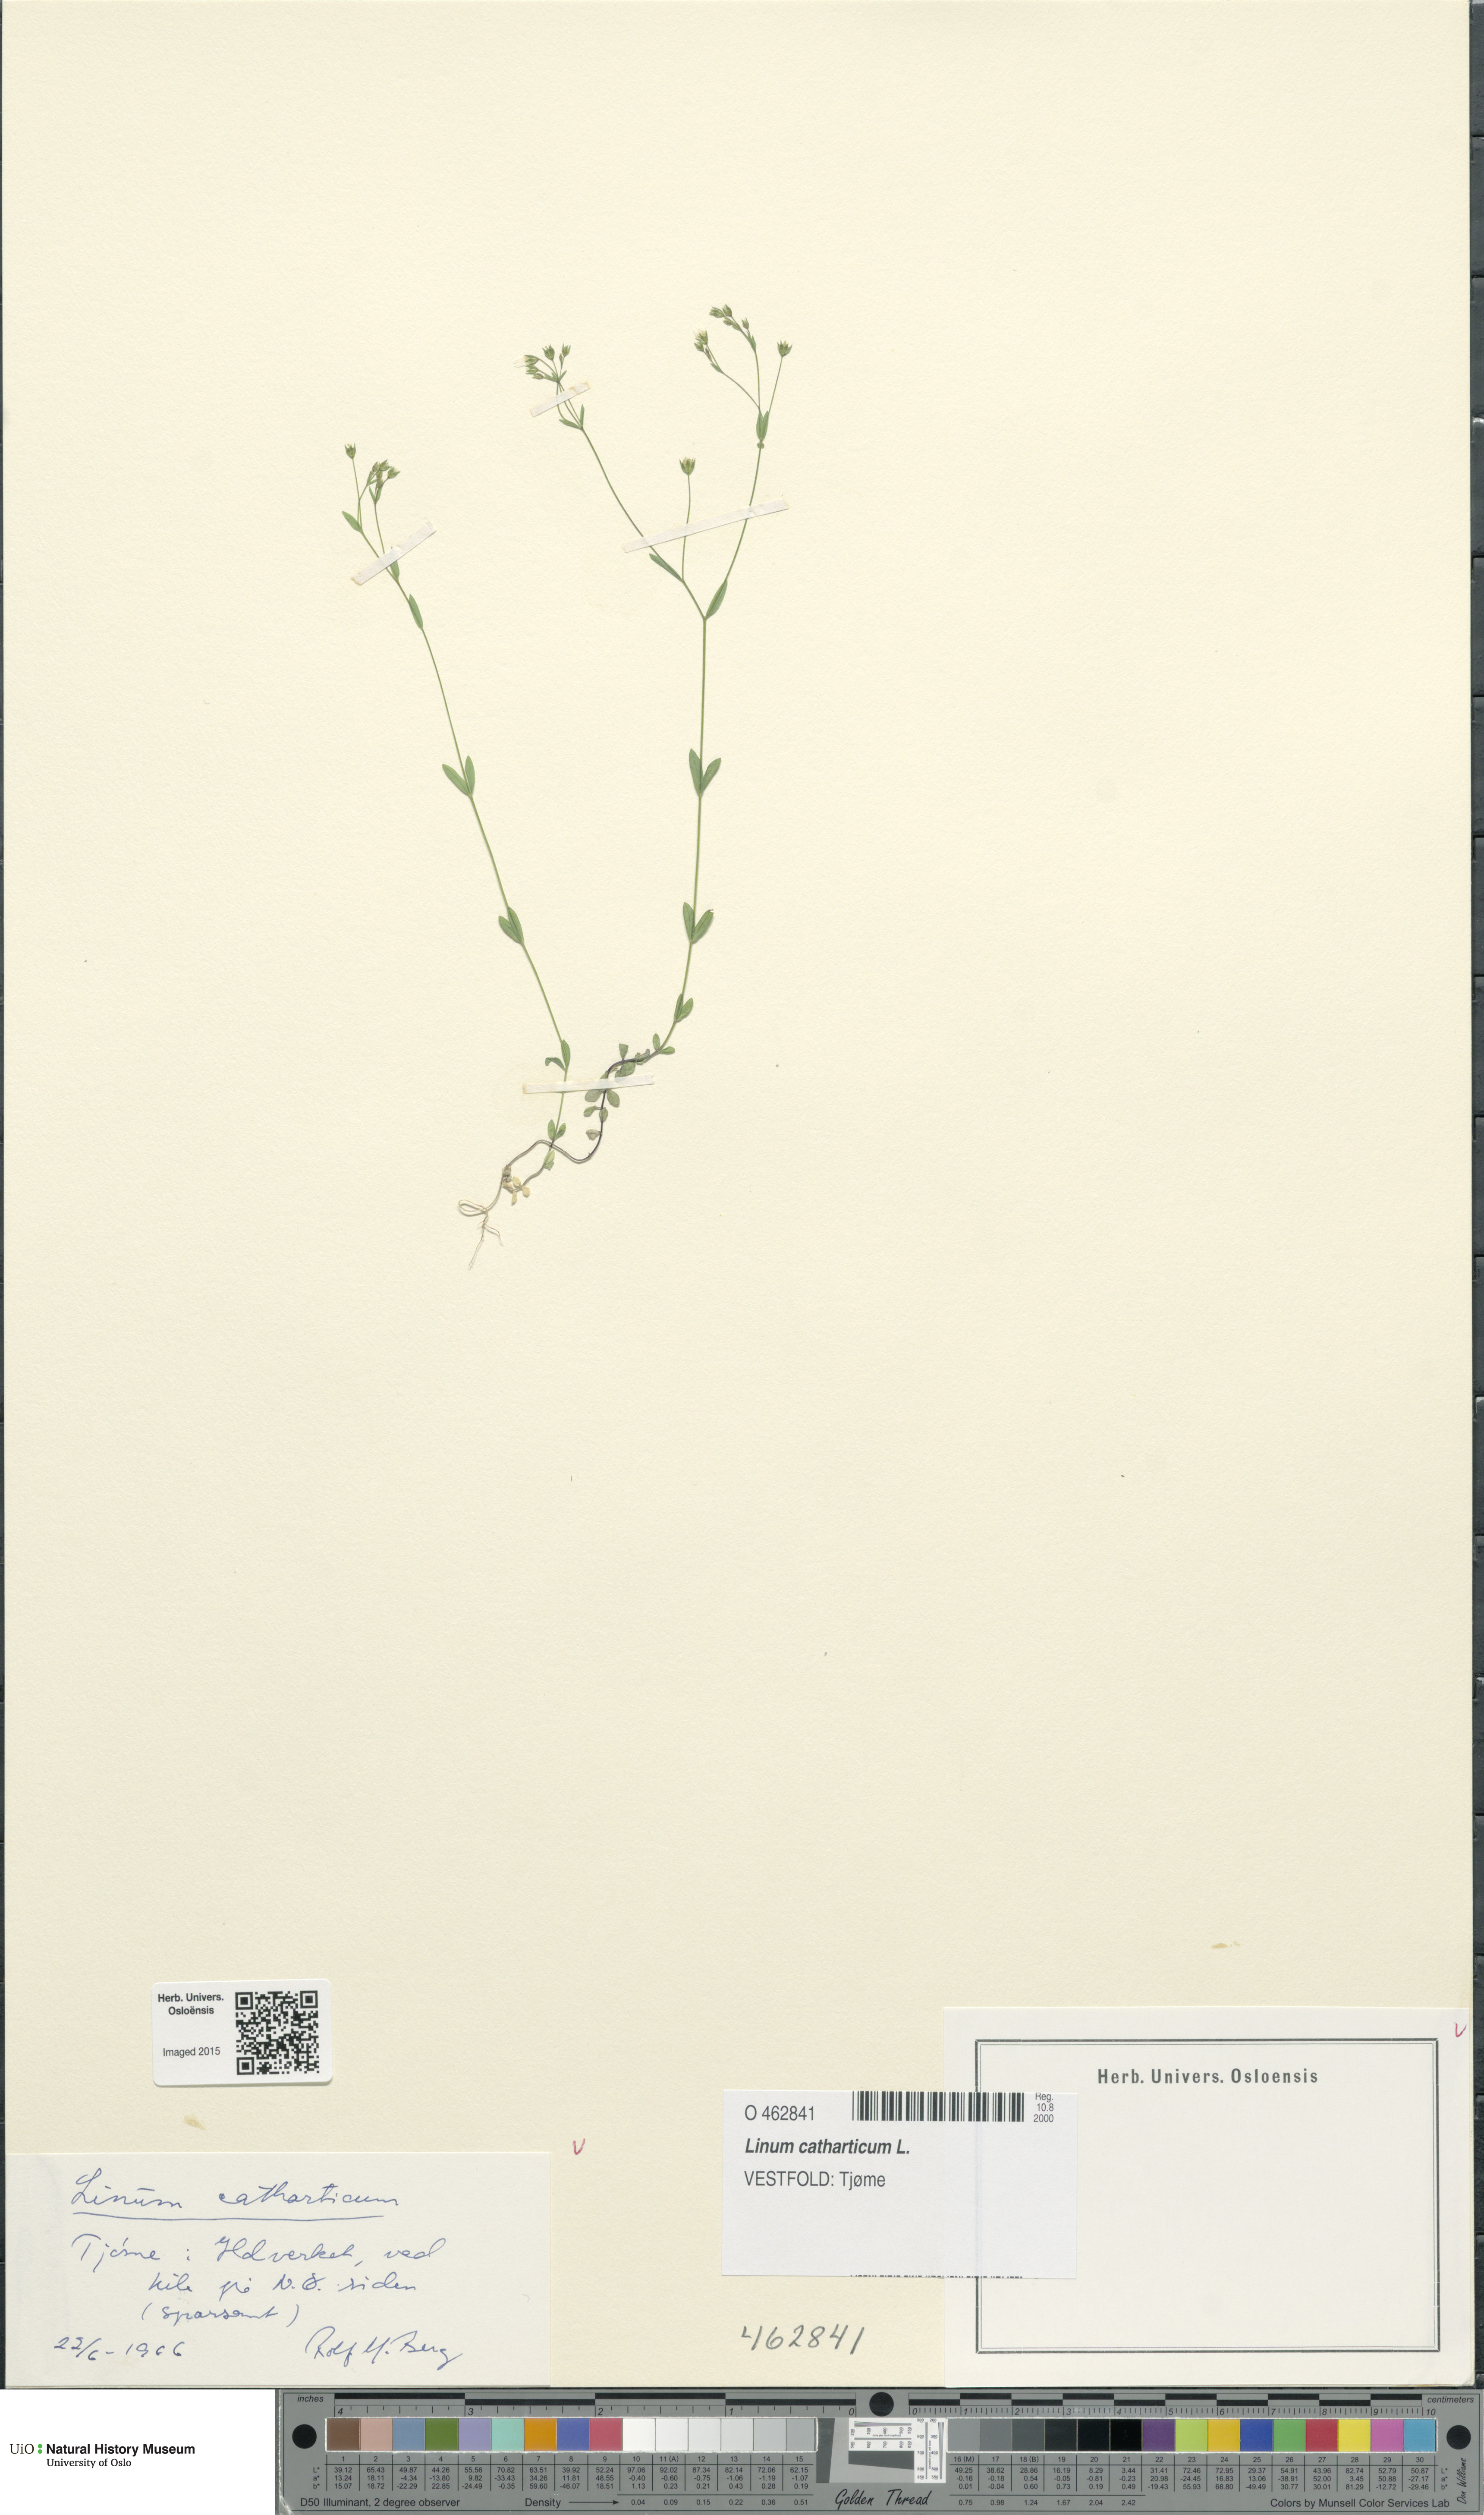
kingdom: Plantae
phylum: Tracheophyta
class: Magnoliopsida
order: Malpighiales
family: Linaceae
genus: Linum
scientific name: Linum catharticum
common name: Fairy flax
